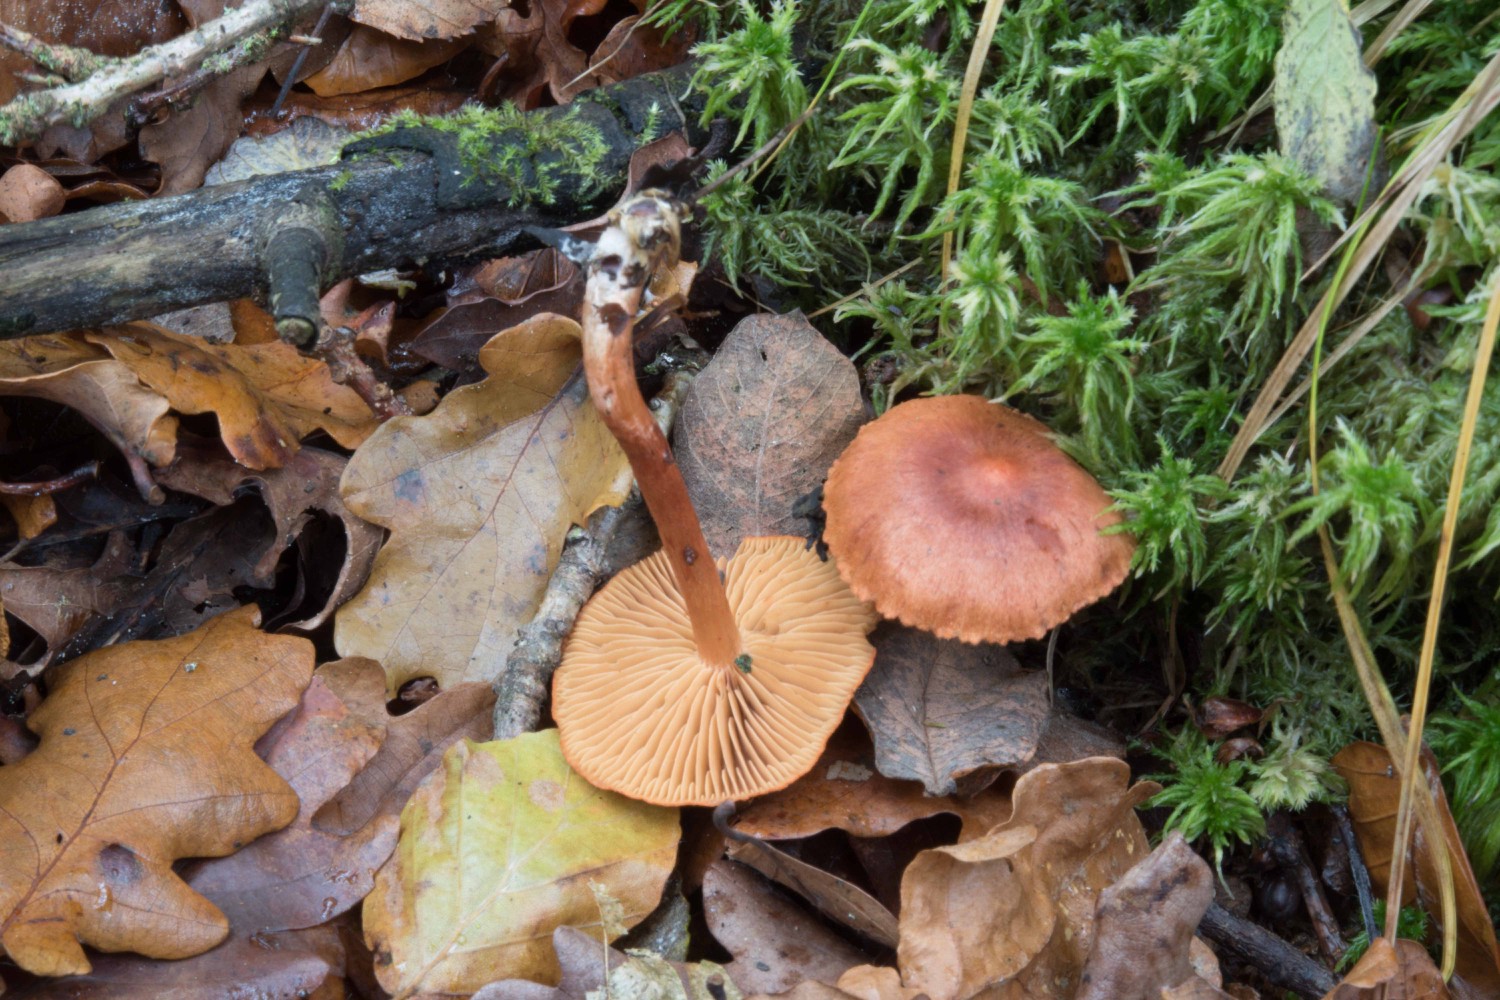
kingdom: Fungi
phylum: Basidiomycota
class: Agaricomycetes
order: Agaricales
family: Cortinariaceae
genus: Cortinarius
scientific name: Cortinarius uliginosus
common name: mose-slørhat
